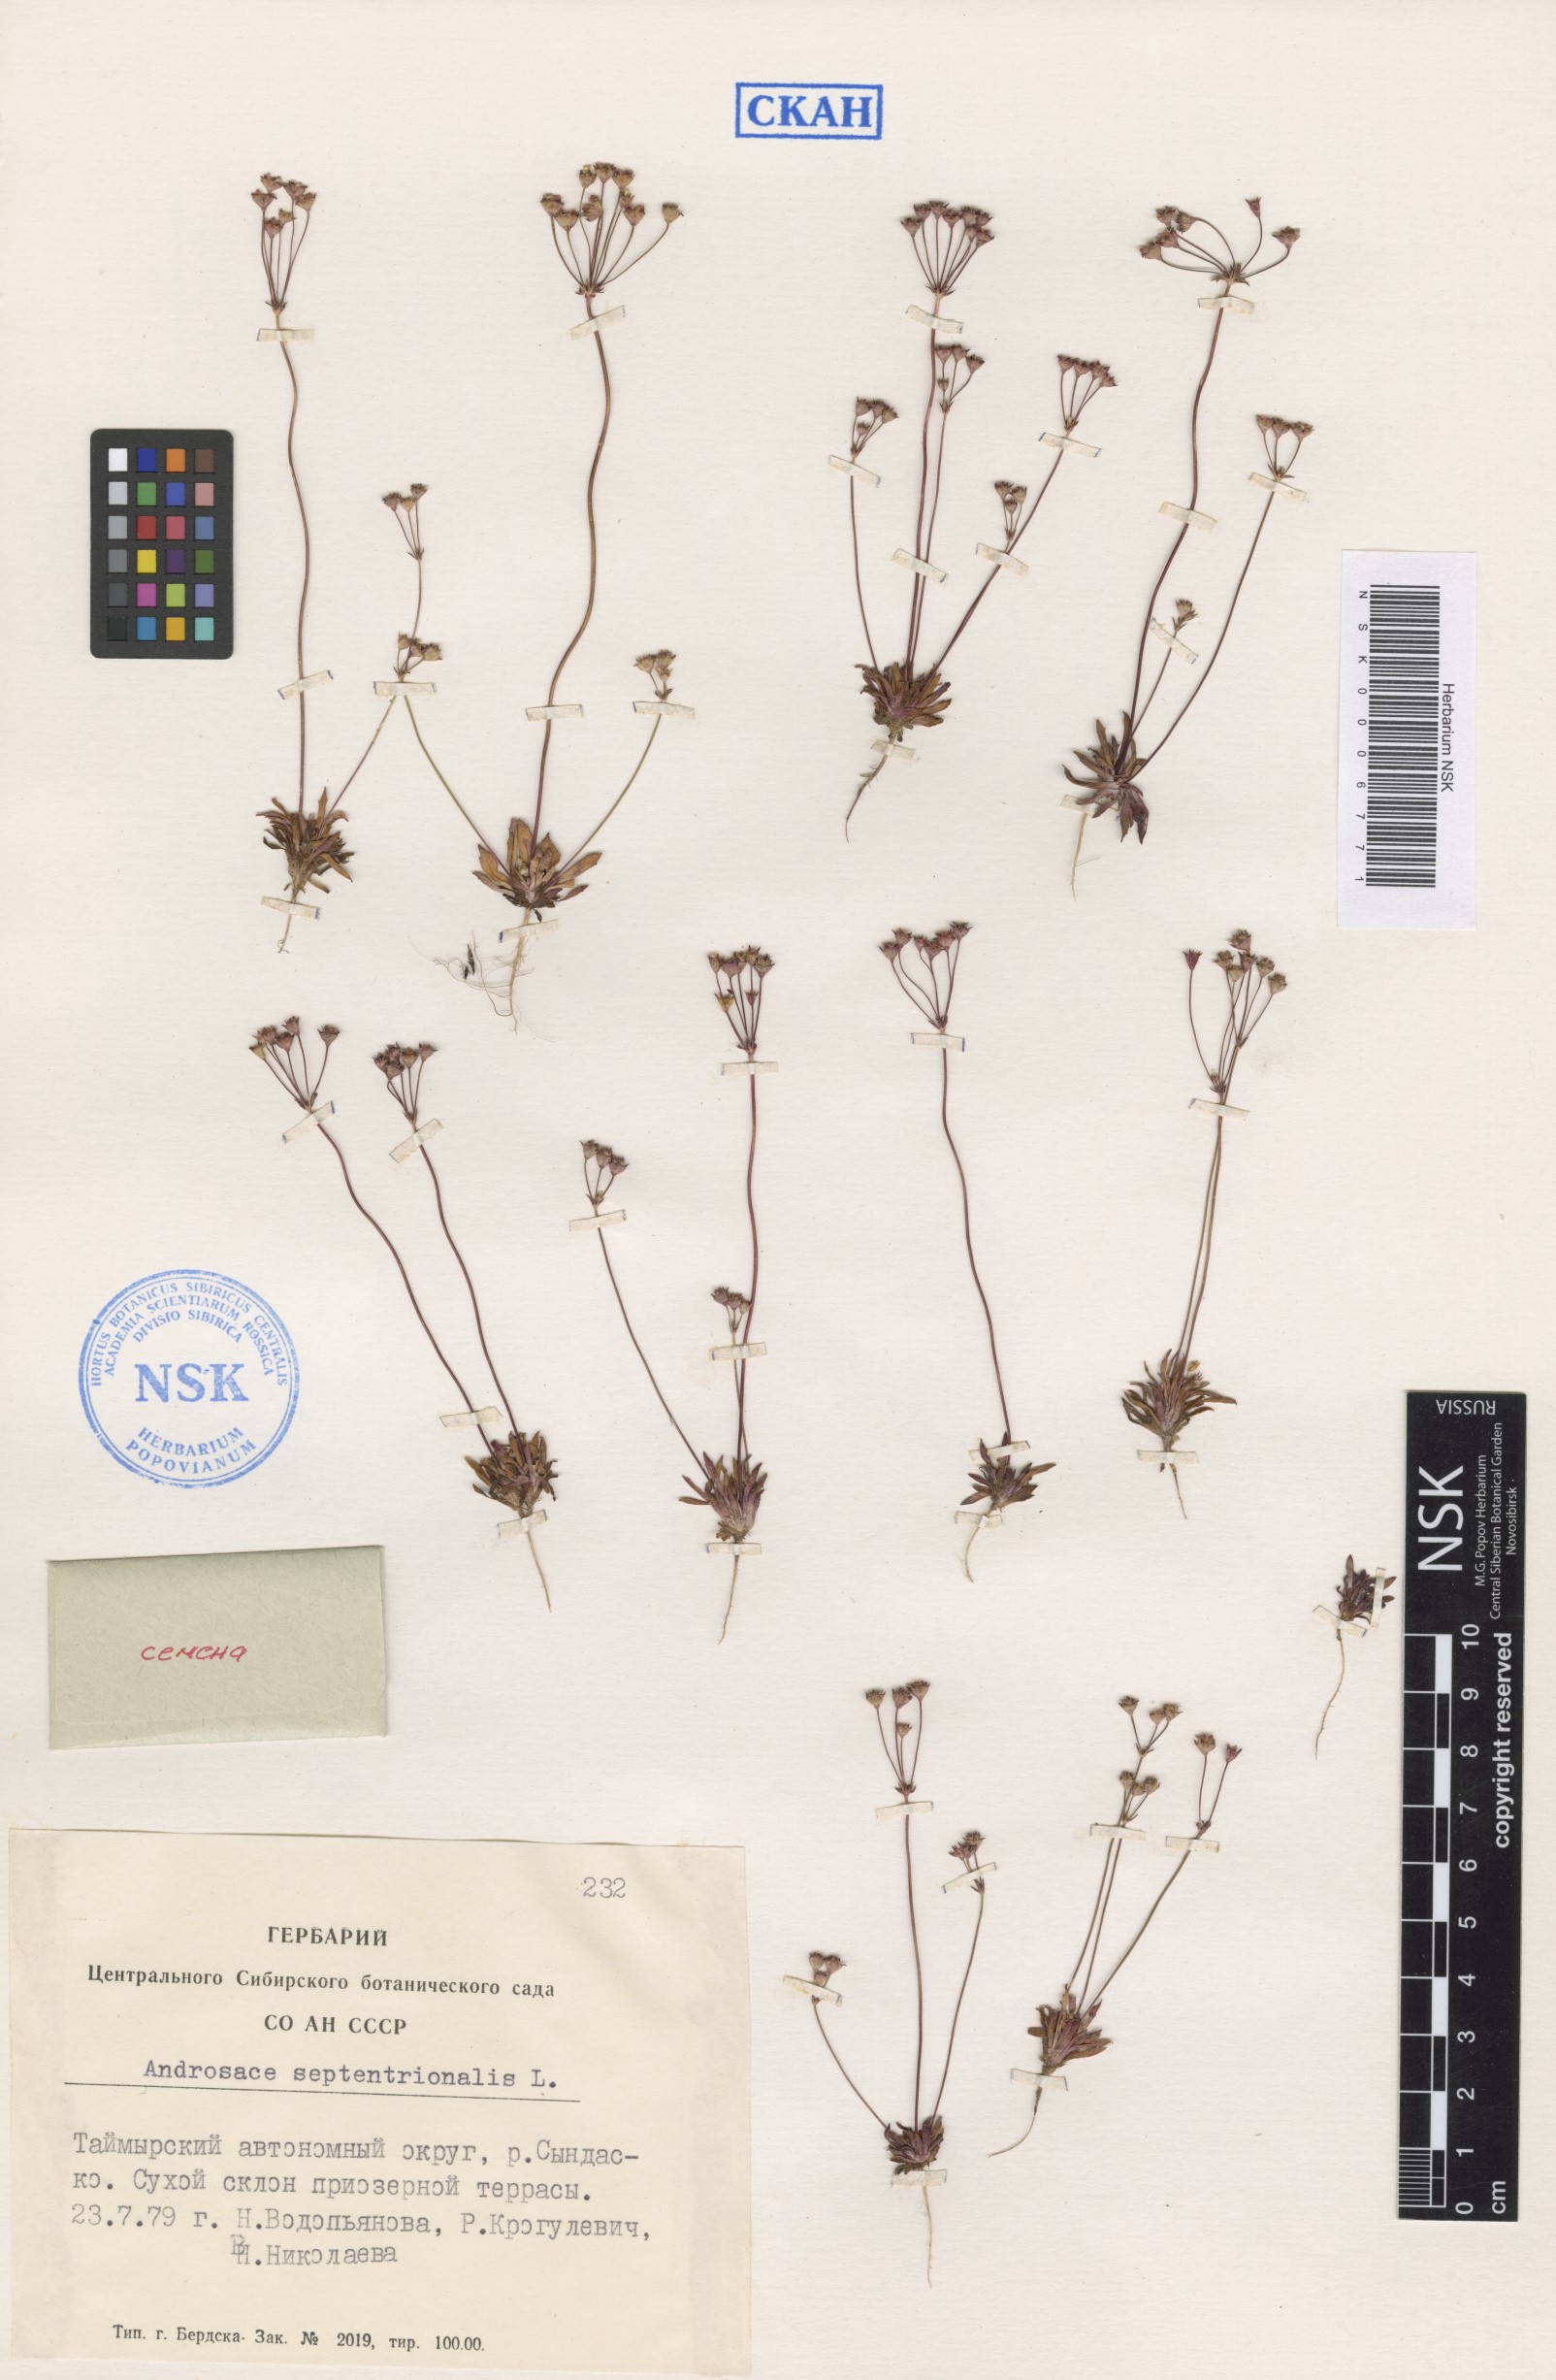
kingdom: Plantae
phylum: Tracheophyta
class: Magnoliopsida
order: Ericales
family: Primulaceae
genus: Androsace
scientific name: Androsace septentrionalis
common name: Hairy northern fairy-candelabra
